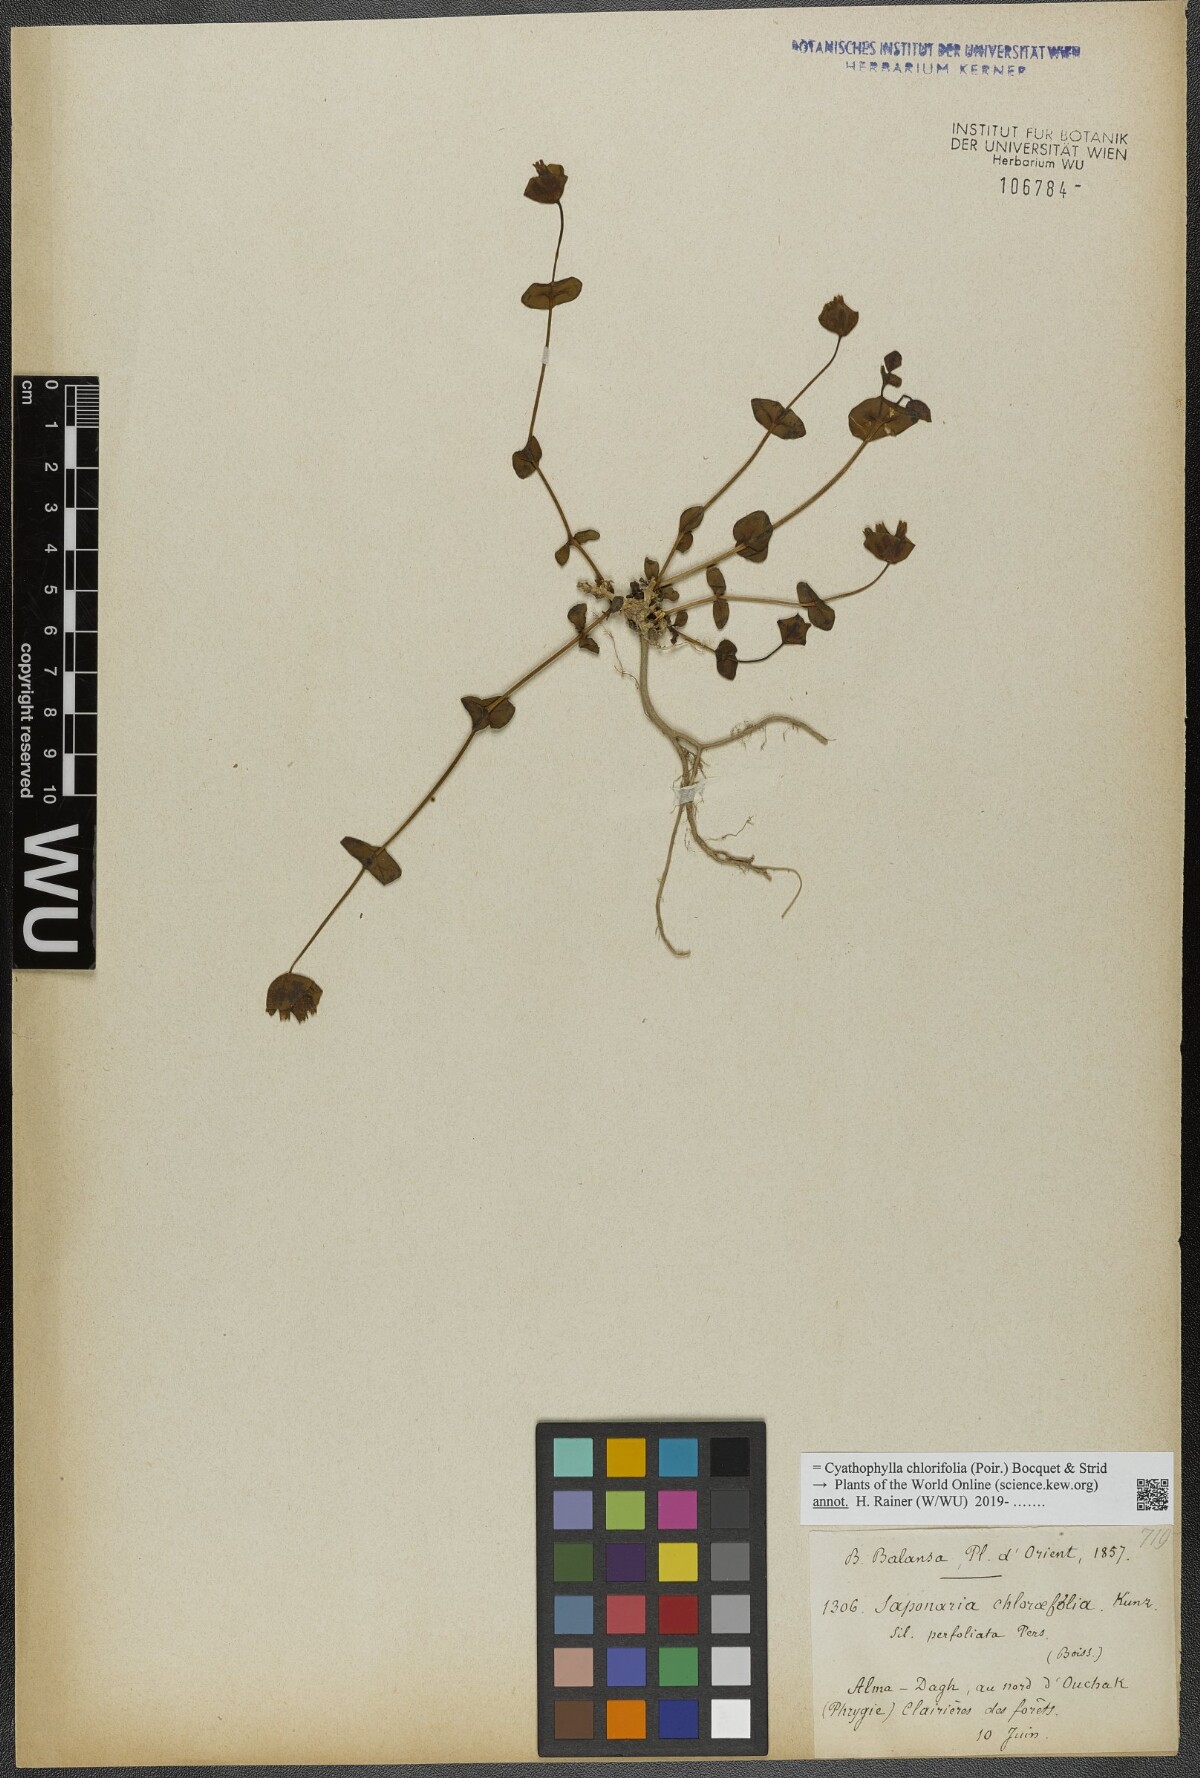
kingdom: Plantae
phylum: Tracheophyta
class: Magnoliopsida
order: Caryophyllales
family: Caryophyllaceae
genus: Cyathophylla
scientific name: Cyathophylla chlorifolia
